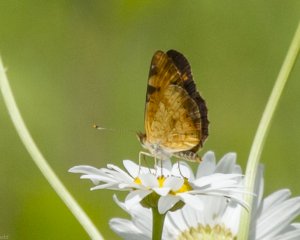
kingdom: Animalia
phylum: Arthropoda
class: Insecta
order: Lepidoptera
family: Nymphalidae
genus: Phyciodes
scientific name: Phyciodes tharos
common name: Northern Crescent
